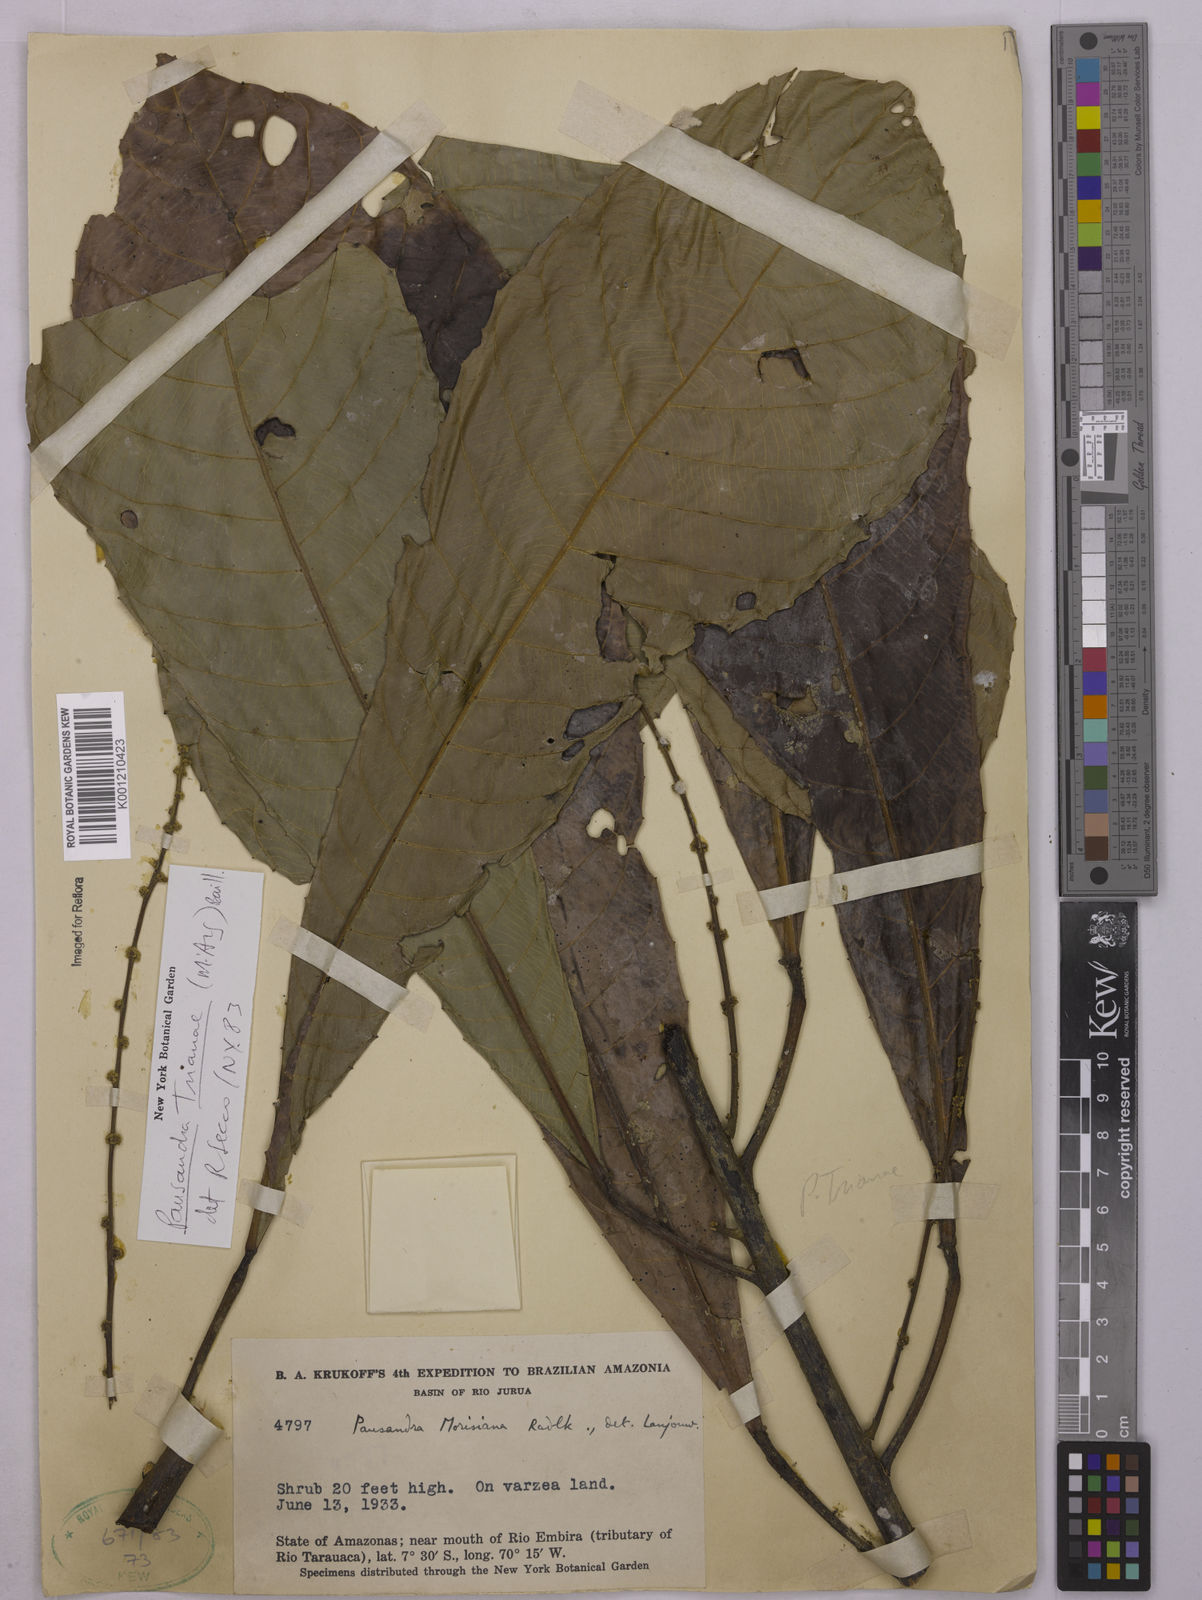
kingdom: Plantae
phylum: Tracheophyta
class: Magnoliopsida
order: Malpighiales
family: Euphorbiaceae
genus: Pausandra
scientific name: Pausandra
